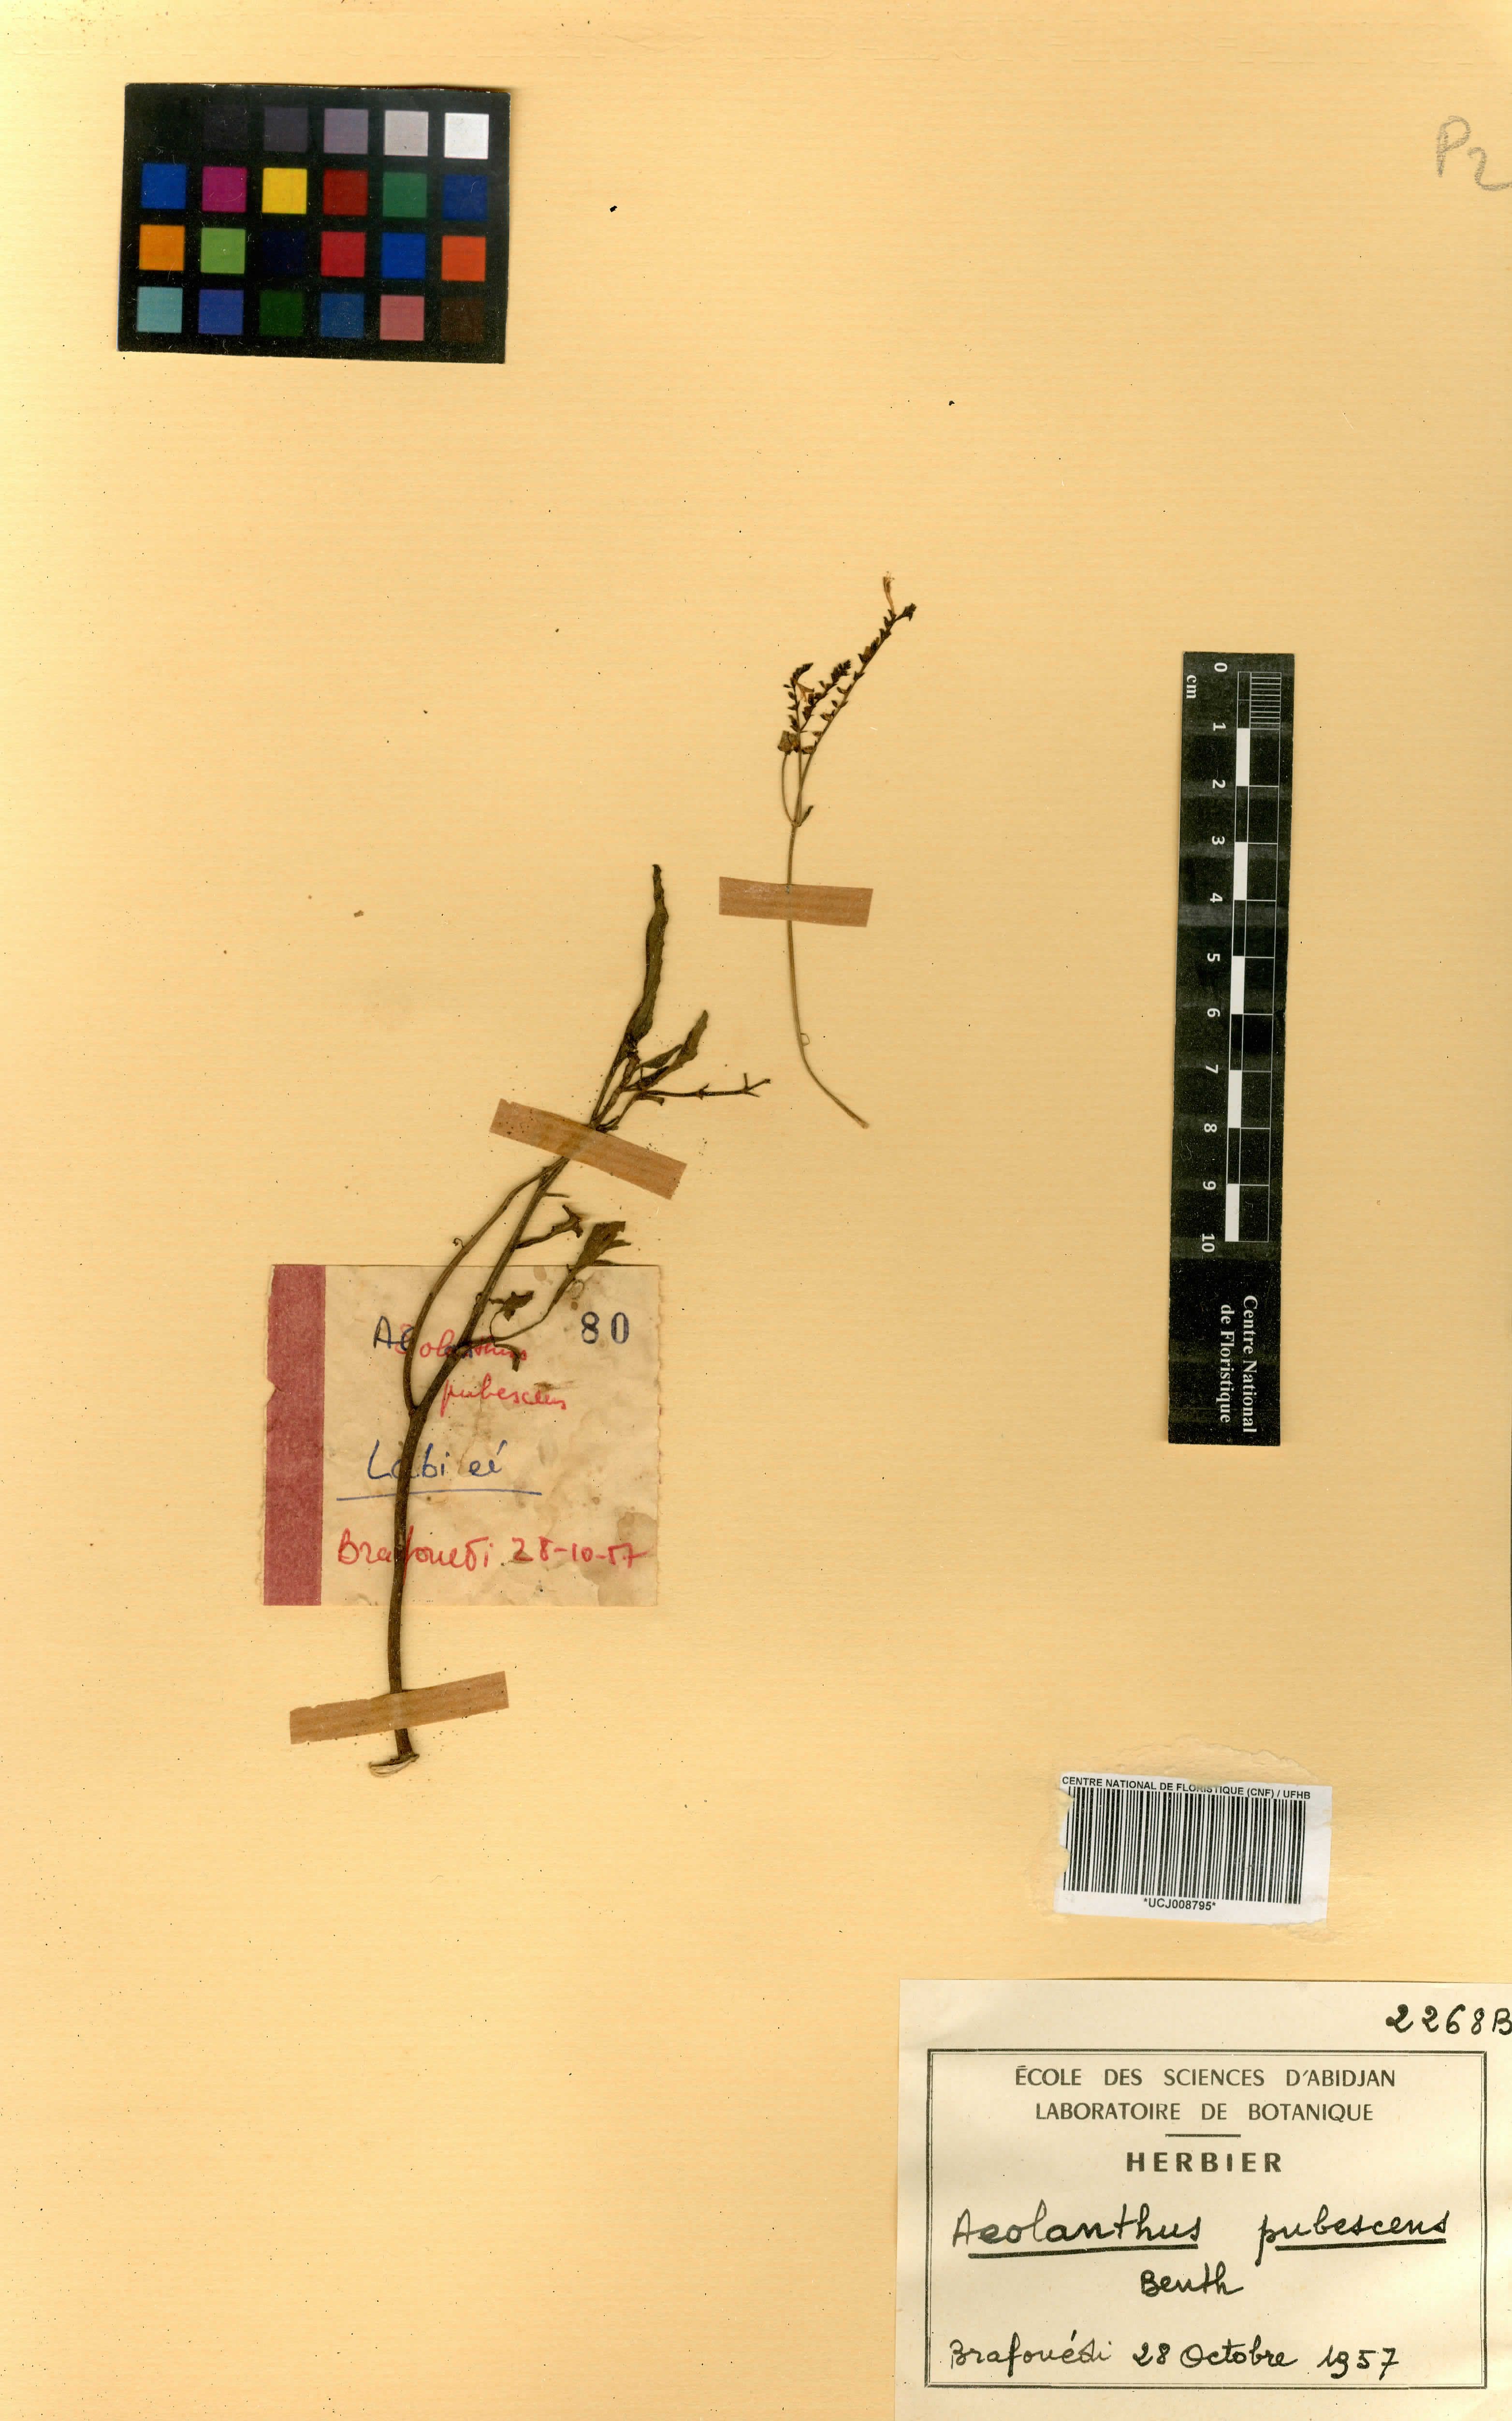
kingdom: Plantae
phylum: Tracheophyta
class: Magnoliopsida
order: Lamiales
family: Lamiaceae
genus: Aeollanthus
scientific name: Aeollanthus pubescens
